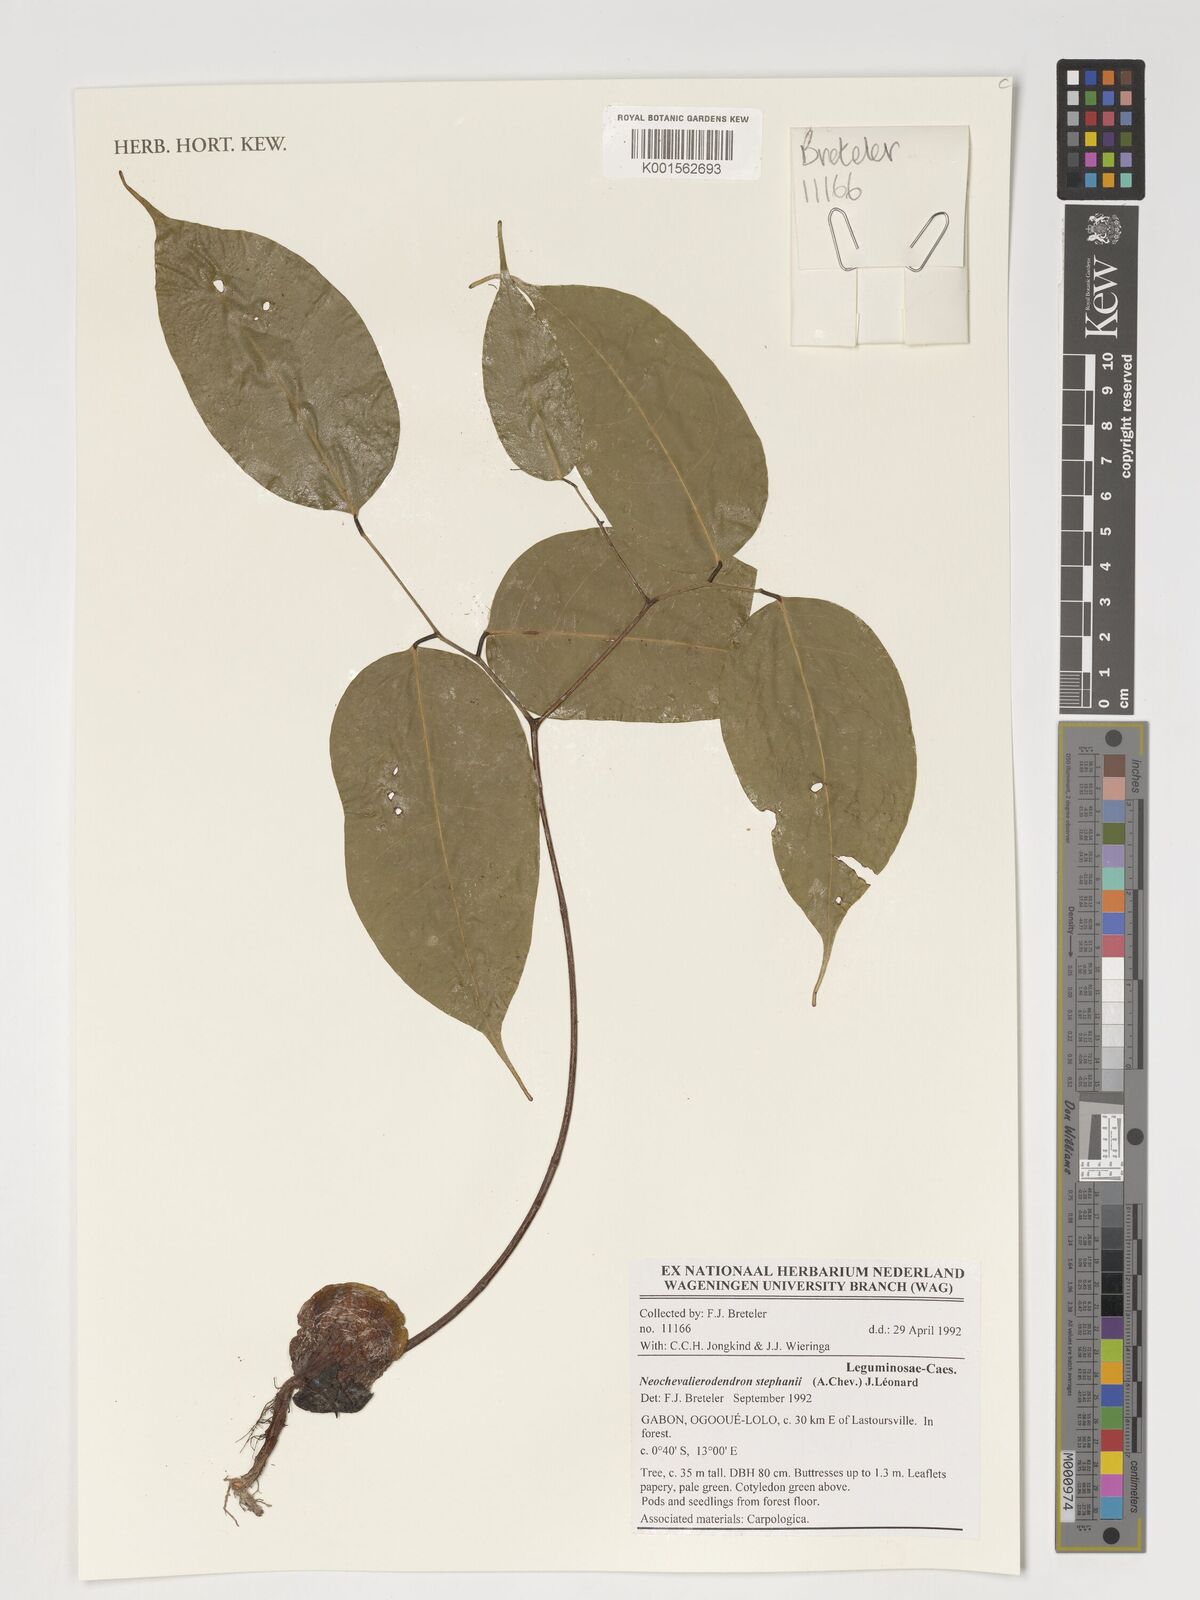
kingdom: Plantae
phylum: Tracheophyta
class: Magnoliopsida
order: Fabales
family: Fabaceae
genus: Neochevalierodendron
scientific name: Neochevalierodendron stephanii
